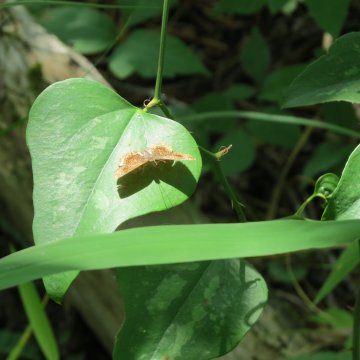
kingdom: Animalia
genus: Calephelis
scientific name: Calephelis borealis
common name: Northern Metalmark
